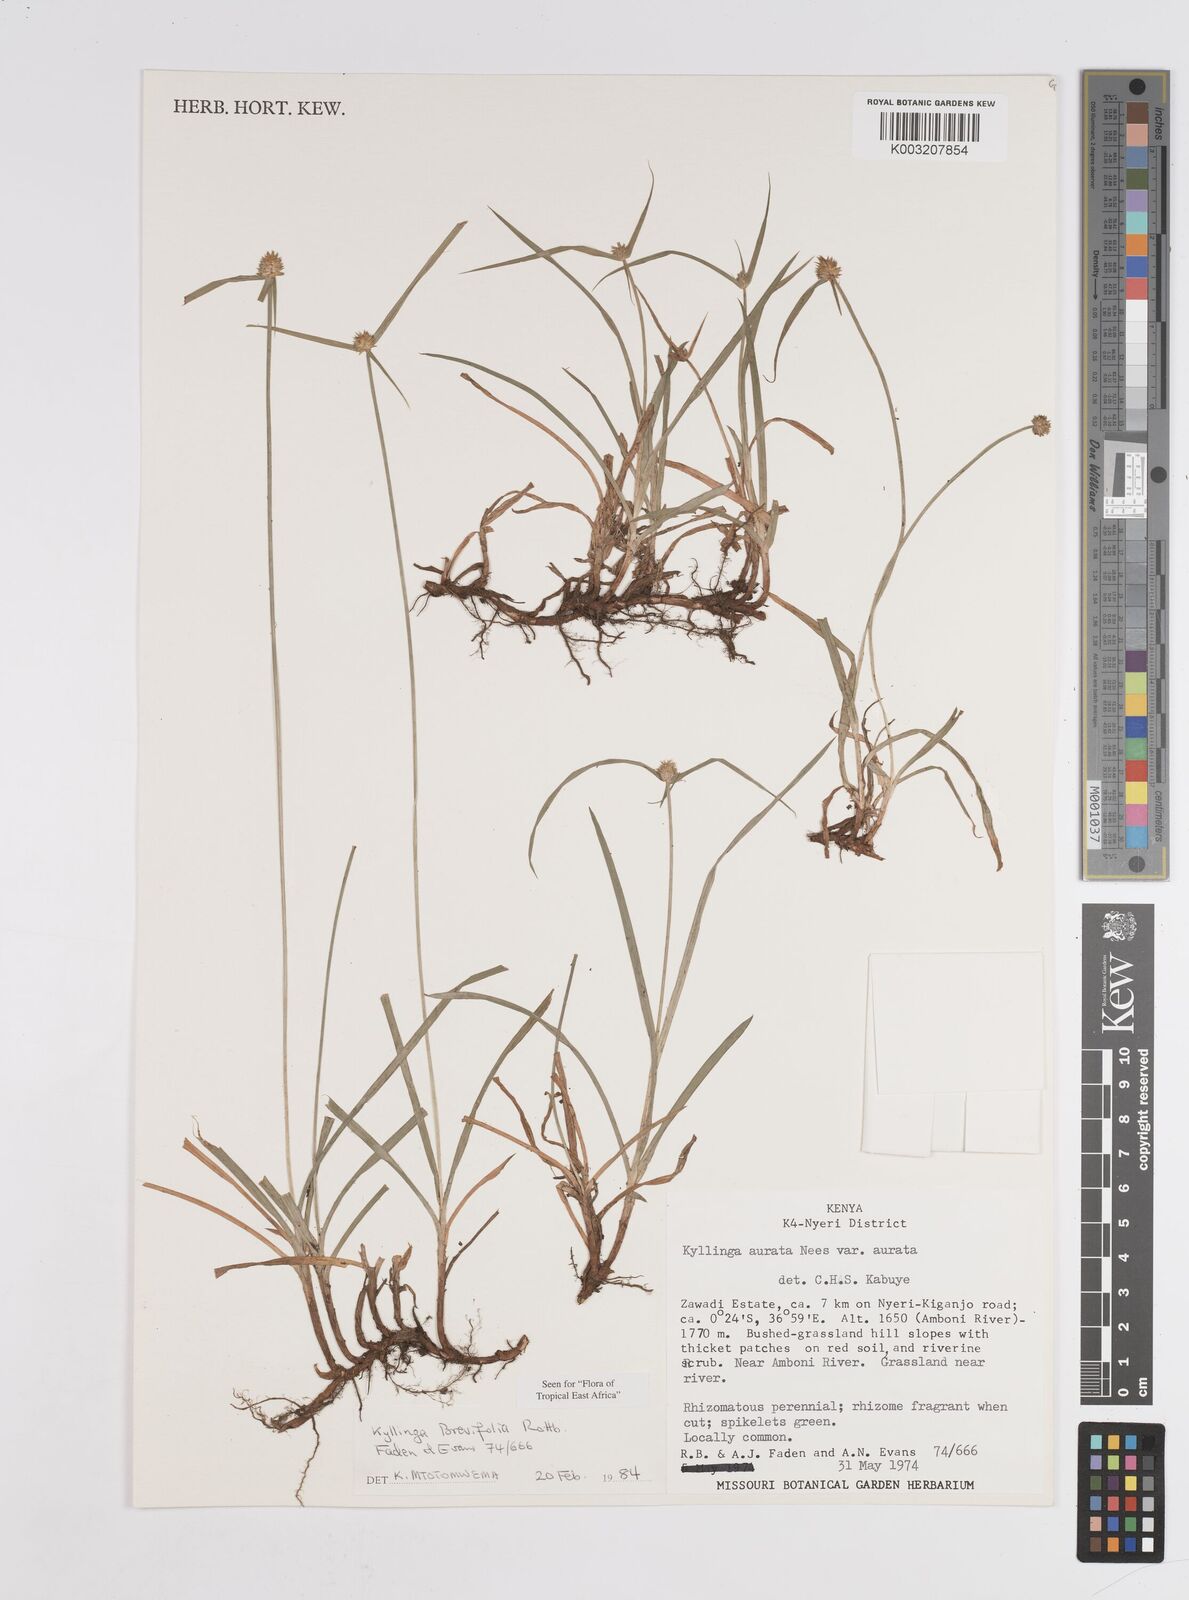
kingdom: Plantae
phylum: Tracheophyta
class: Liliopsida
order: Poales
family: Cyperaceae
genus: Cyperus
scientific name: Cyperus brevifolius
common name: Globe kyllinga
